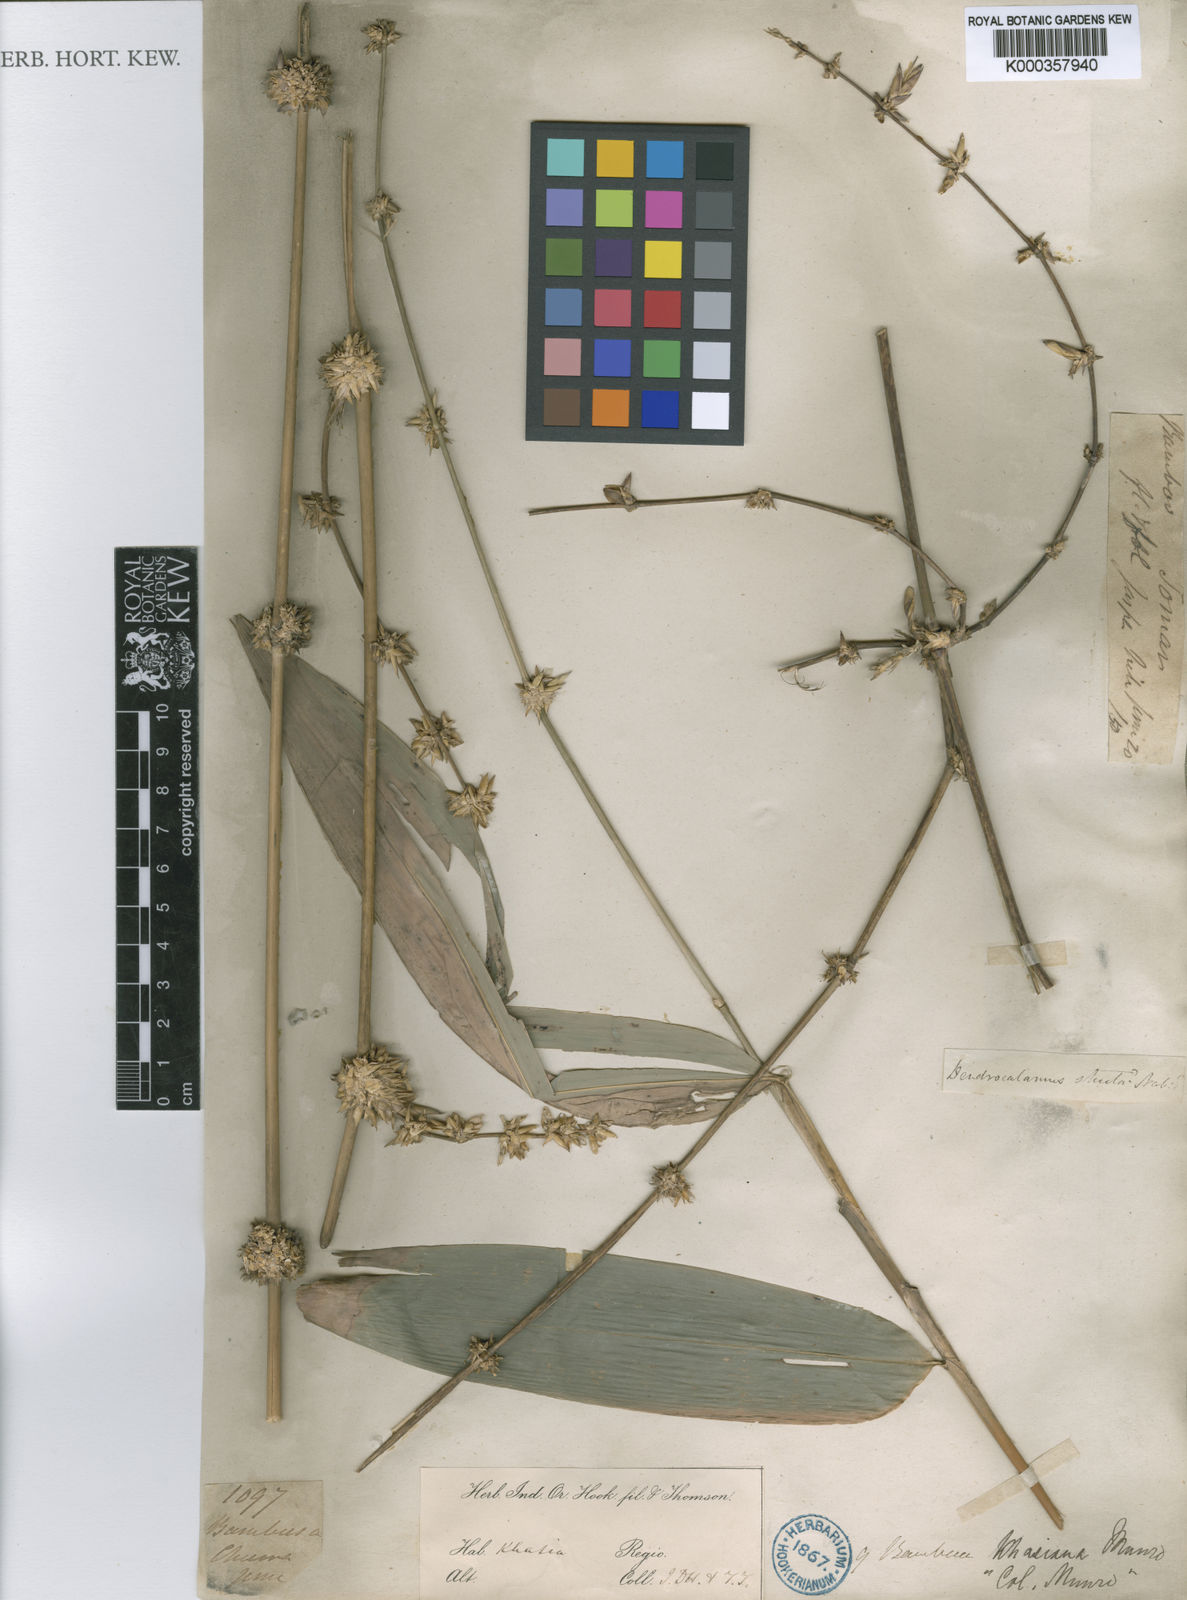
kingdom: Plantae
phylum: Tracheophyta
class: Liliopsida
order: Poales
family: Poaceae
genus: Bambusa
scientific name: Bambusa khasiana
